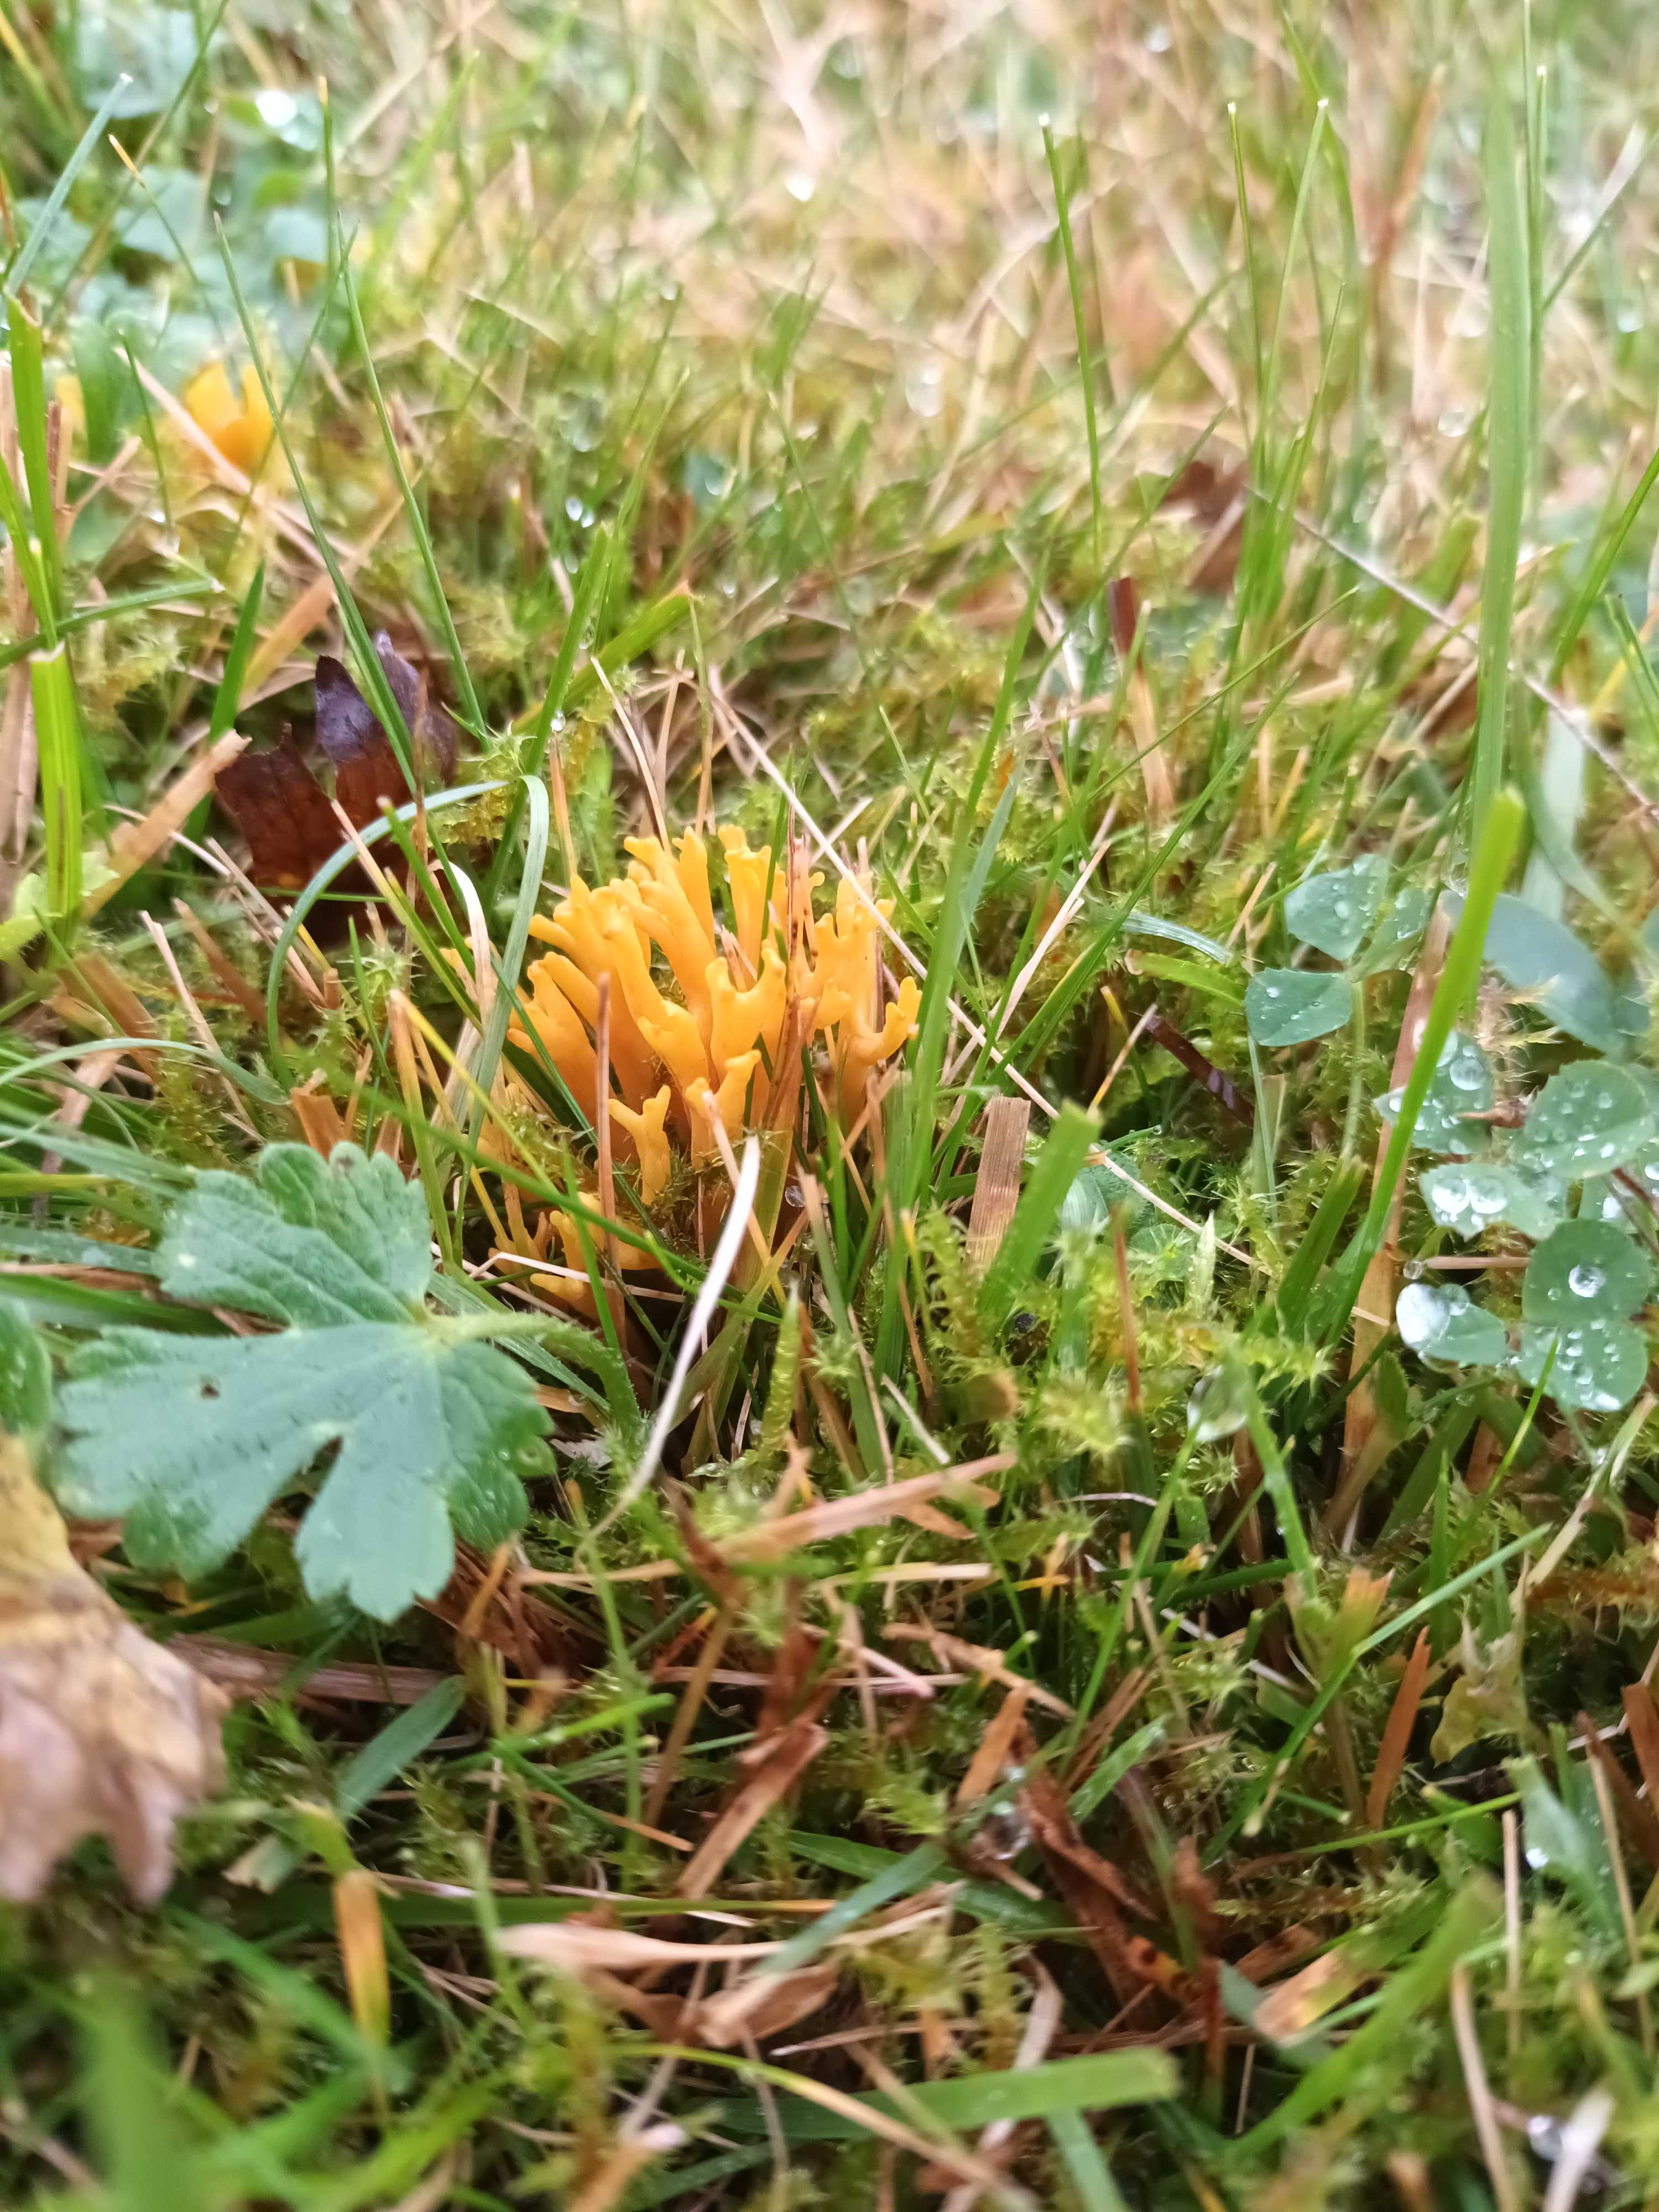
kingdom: Fungi
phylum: Basidiomycota
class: Agaricomycetes
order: Agaricales
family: Clavariaceae
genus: Clavulinopsis
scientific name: Clavulinopsis corniculata
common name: eng-køllesvamp
